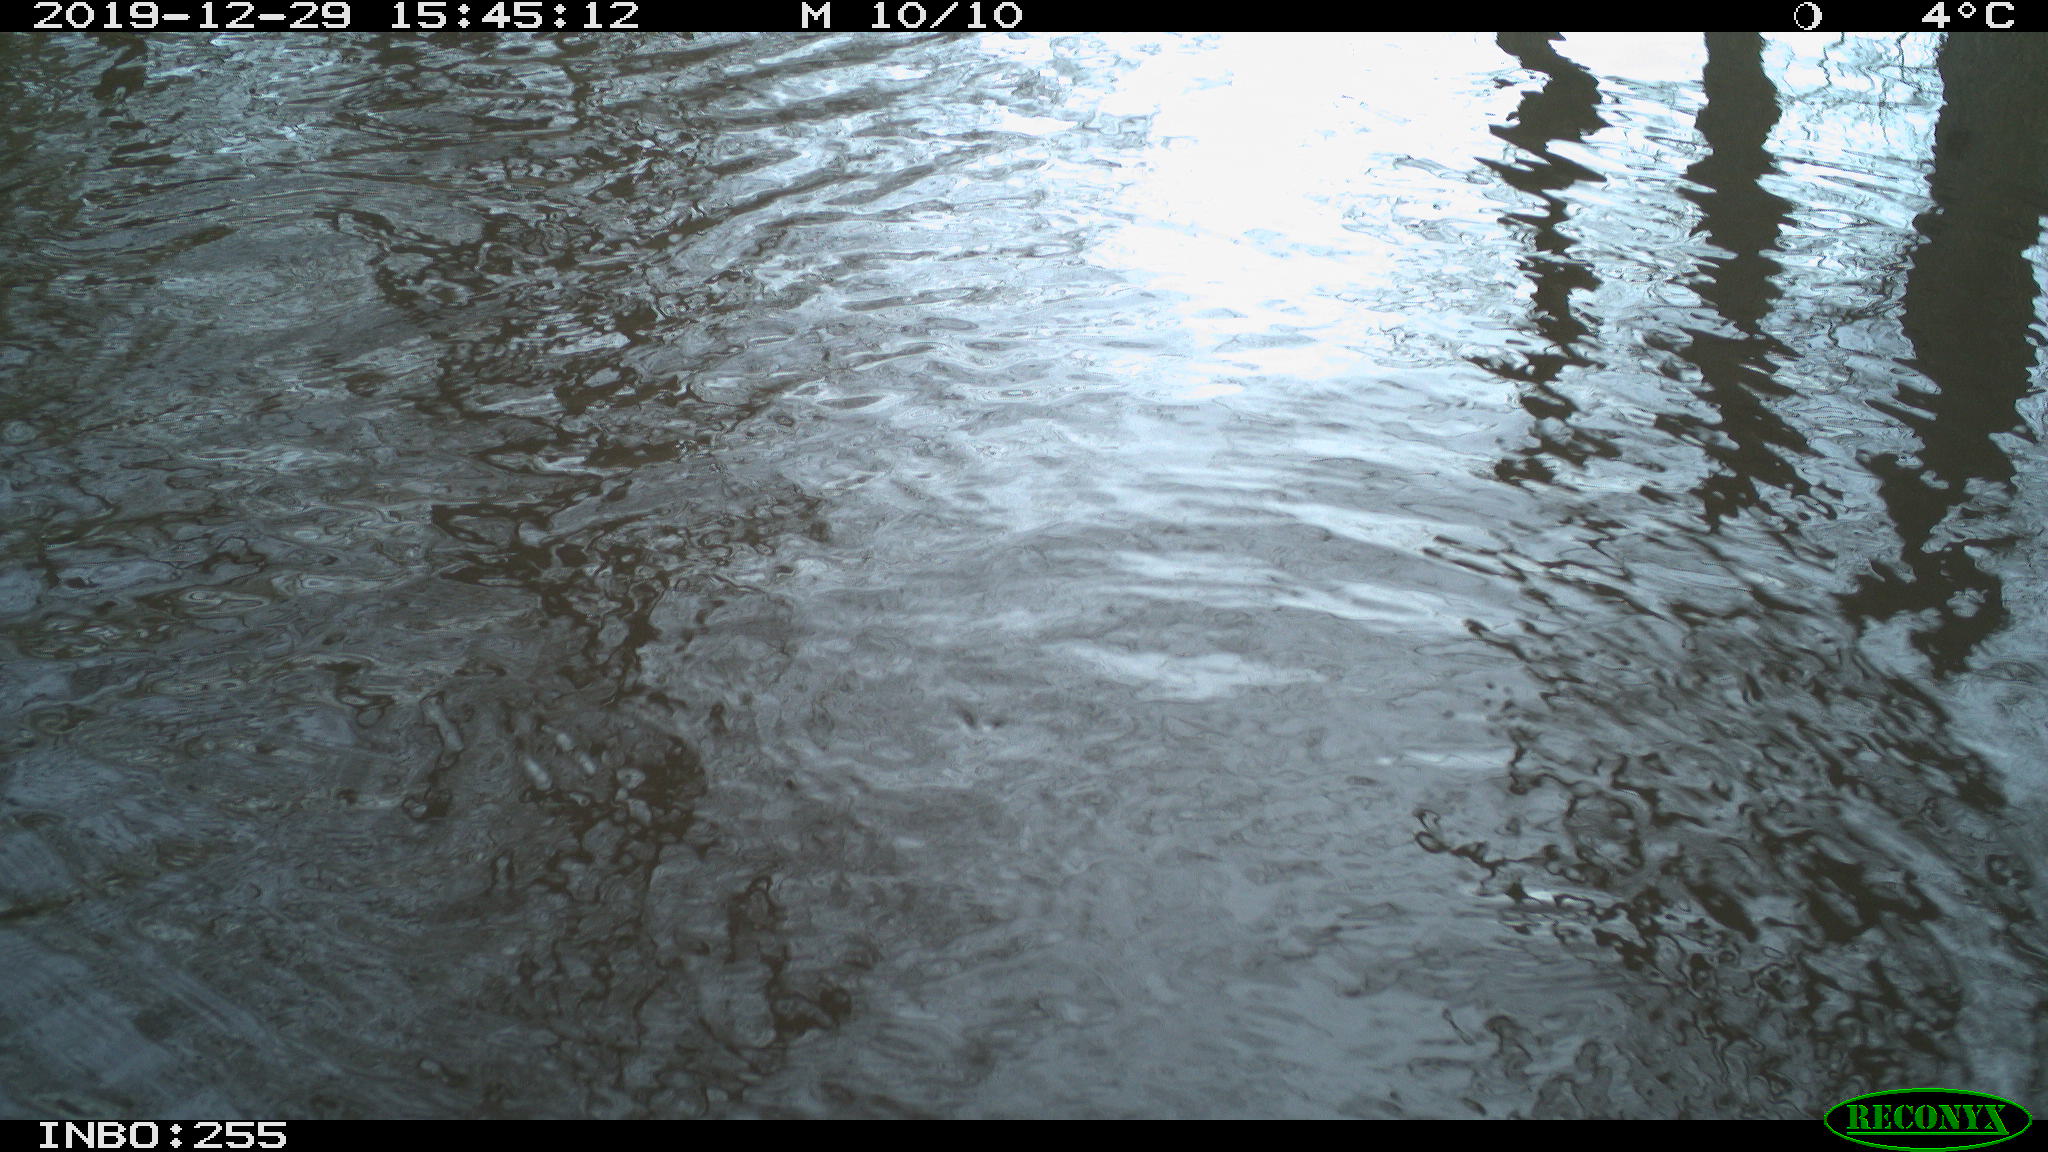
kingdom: Animalia
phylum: Chordata
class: Aves
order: Gruiformes
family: Rallidae
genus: Fulica
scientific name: Fulica atra
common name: Eurasian coot
